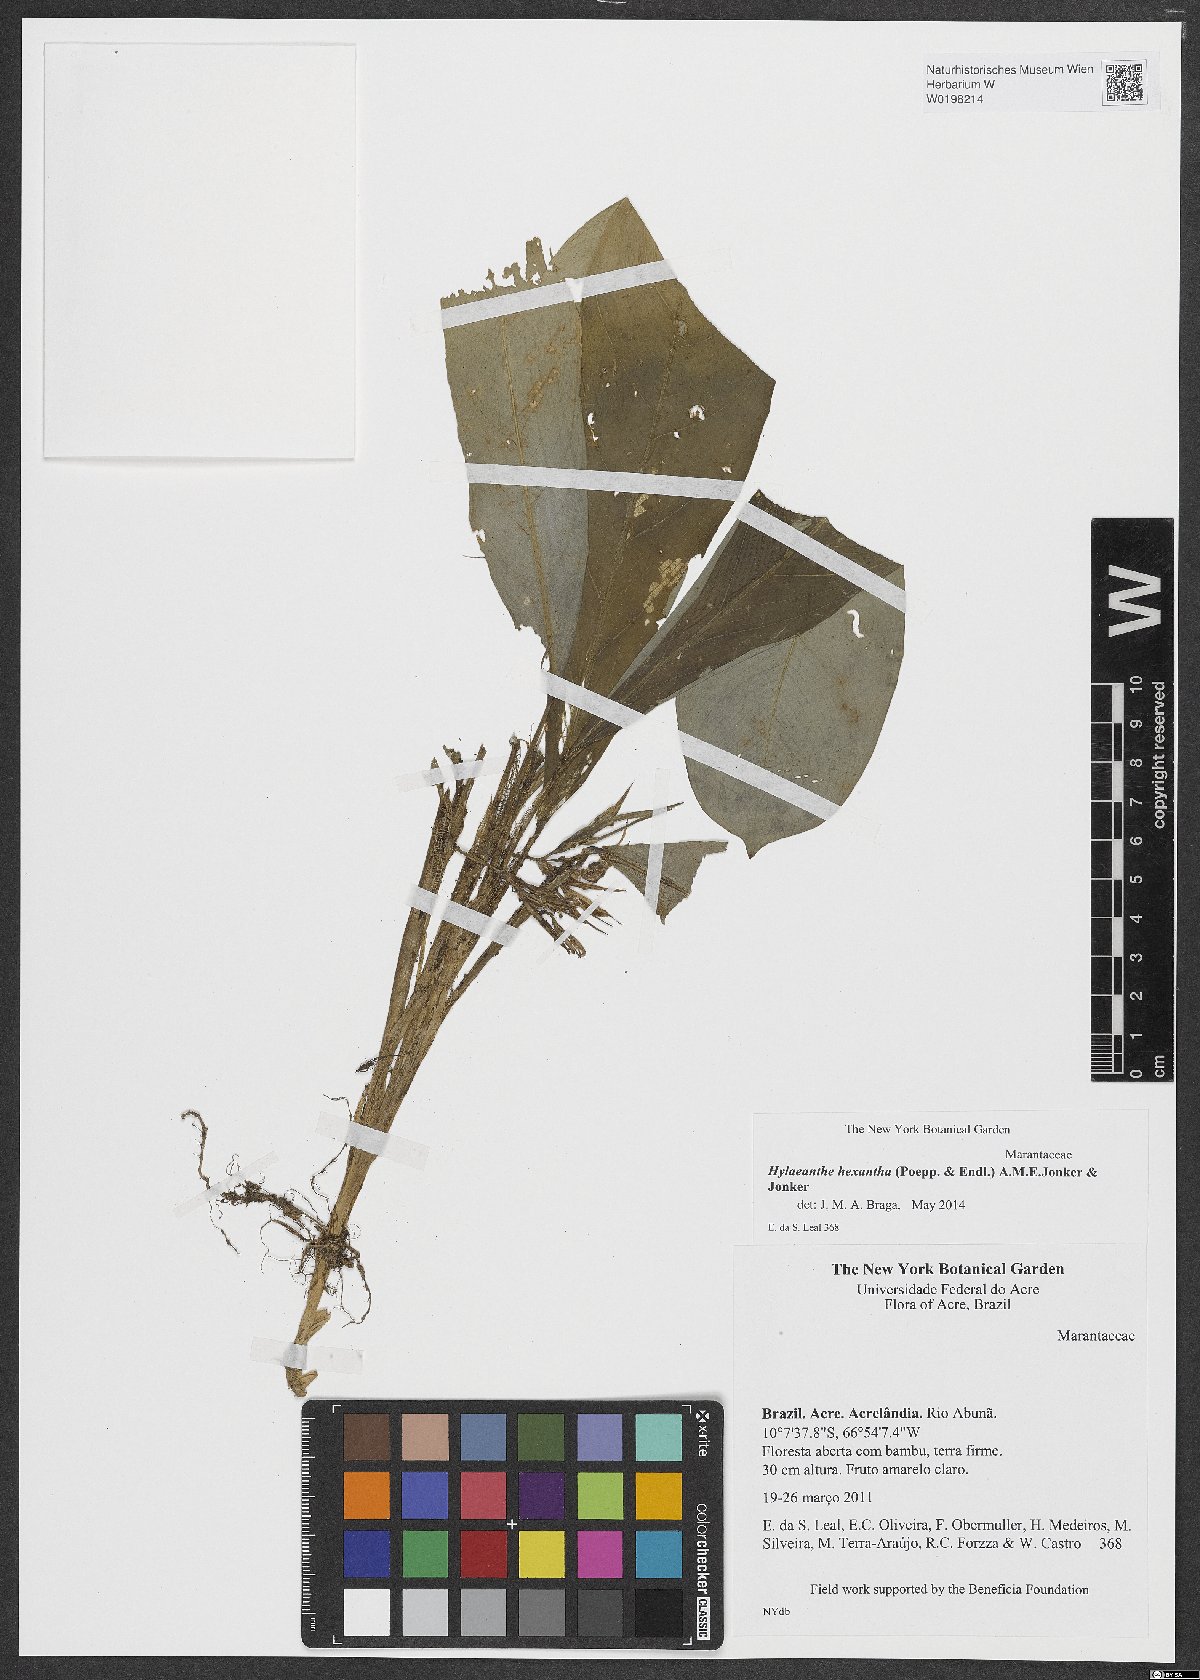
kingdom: Plantae
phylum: Tracheophyta
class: Liliopsida
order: Zingiberales
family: Marantaceae
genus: Hylaeanthe
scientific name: Hylaeanthe hexantha
